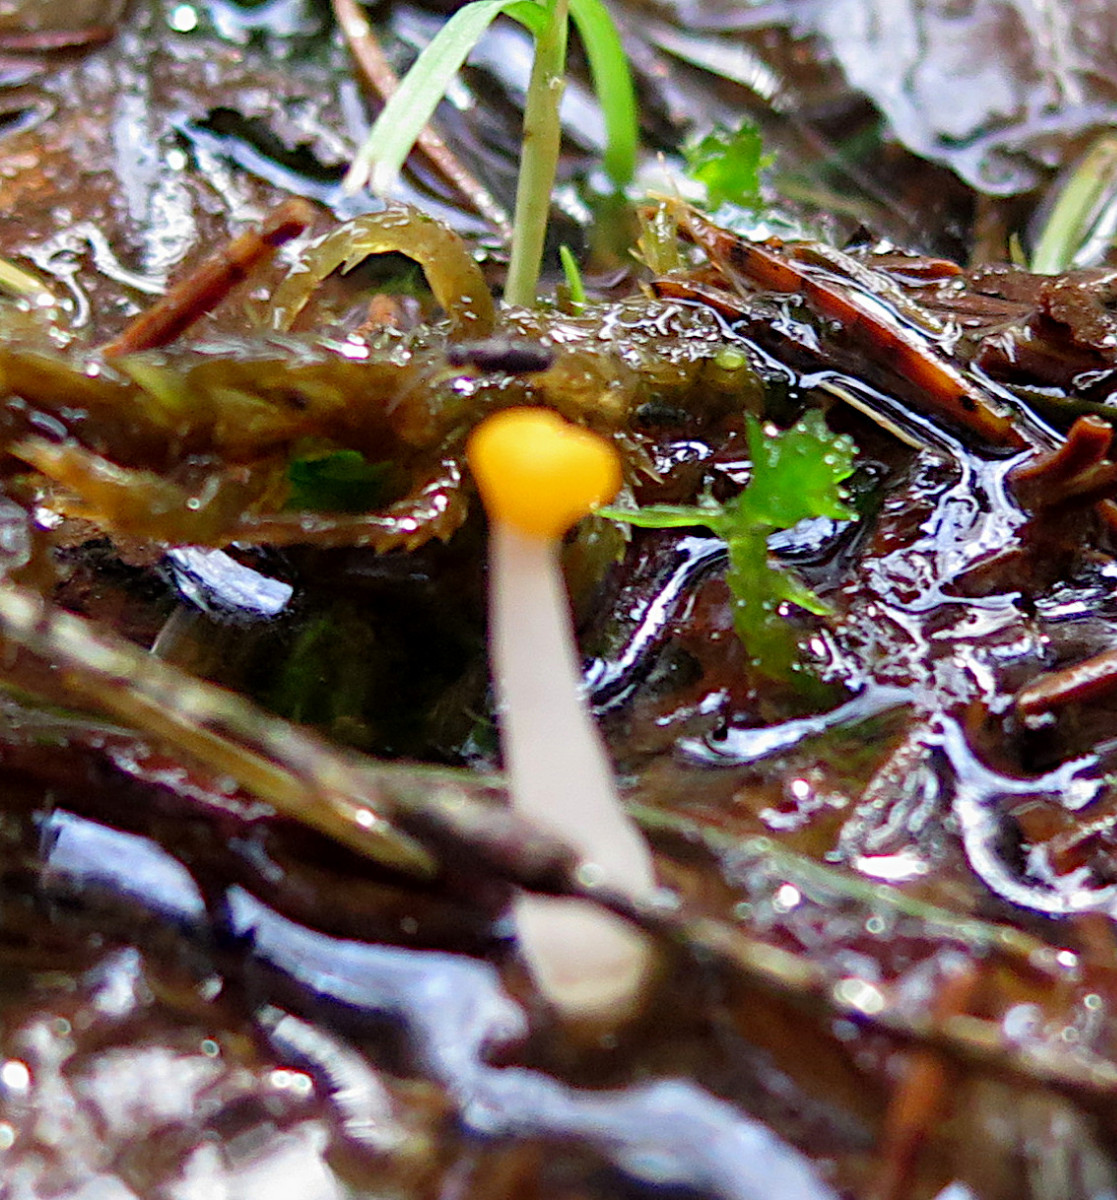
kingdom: Fungi
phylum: Ascomycota
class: Leotiomycetes
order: Helotiales
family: Cenangiaceae
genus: Mitrula
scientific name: Mitrula paludosa
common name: gul nøkketunge
